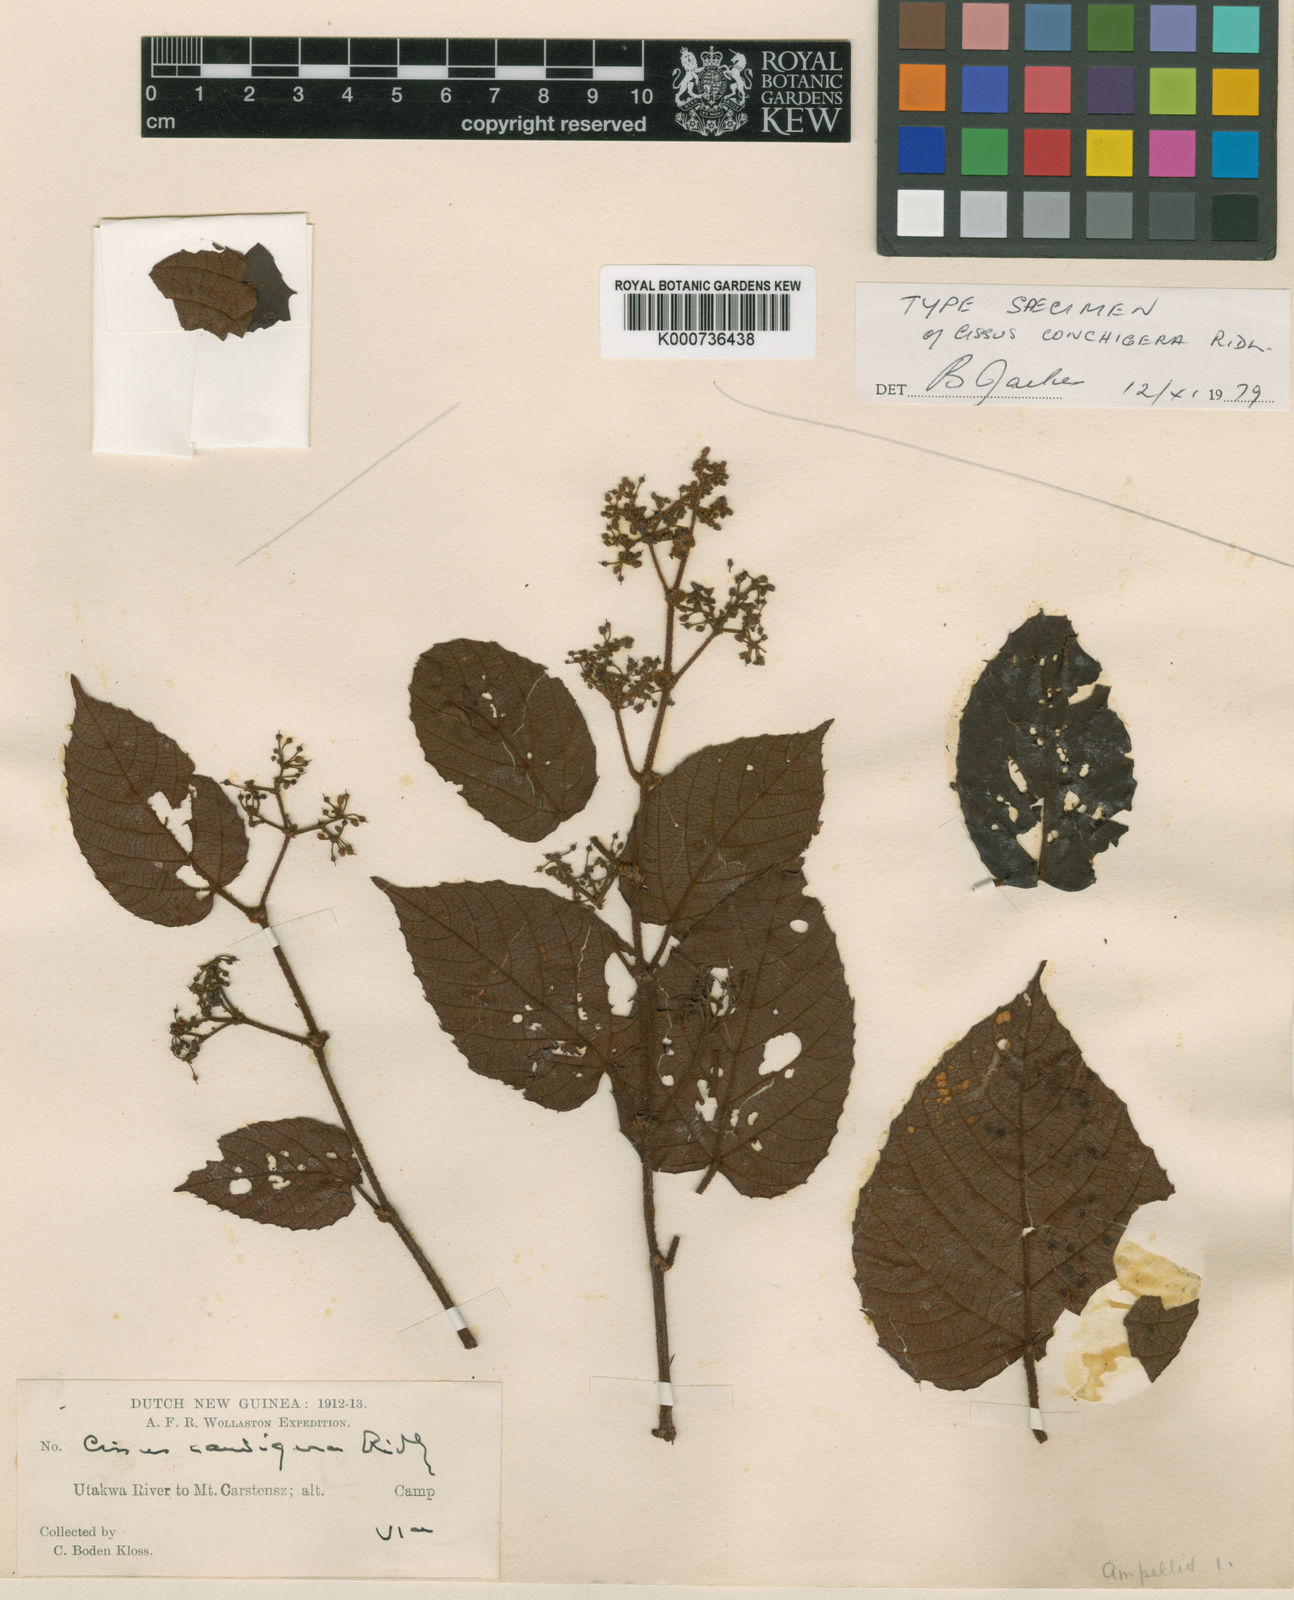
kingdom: Plantae
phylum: Tracheophyta
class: Magnoliopsida
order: Vitales
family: Vitaceae
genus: Cissus
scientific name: Cissus conchigera
